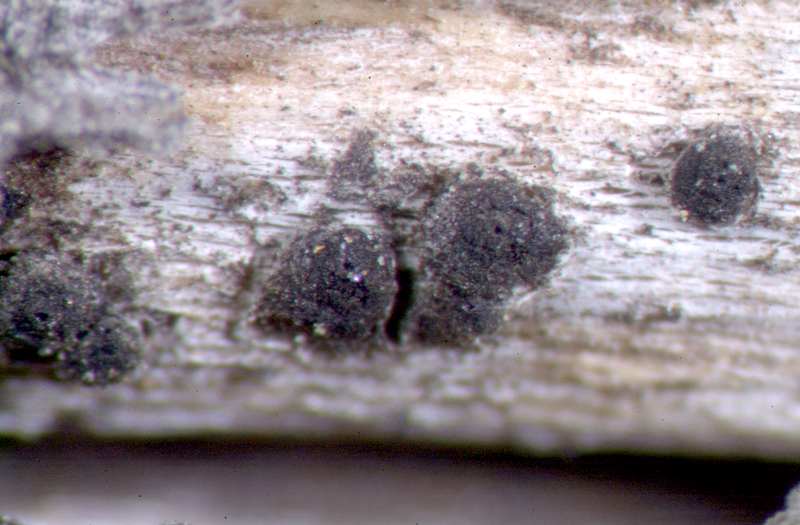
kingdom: Fungi
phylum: Ascomycota
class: Lecanoromycetes
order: Lecanorales
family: Parmeliaceae
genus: Lichen
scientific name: Lichen
